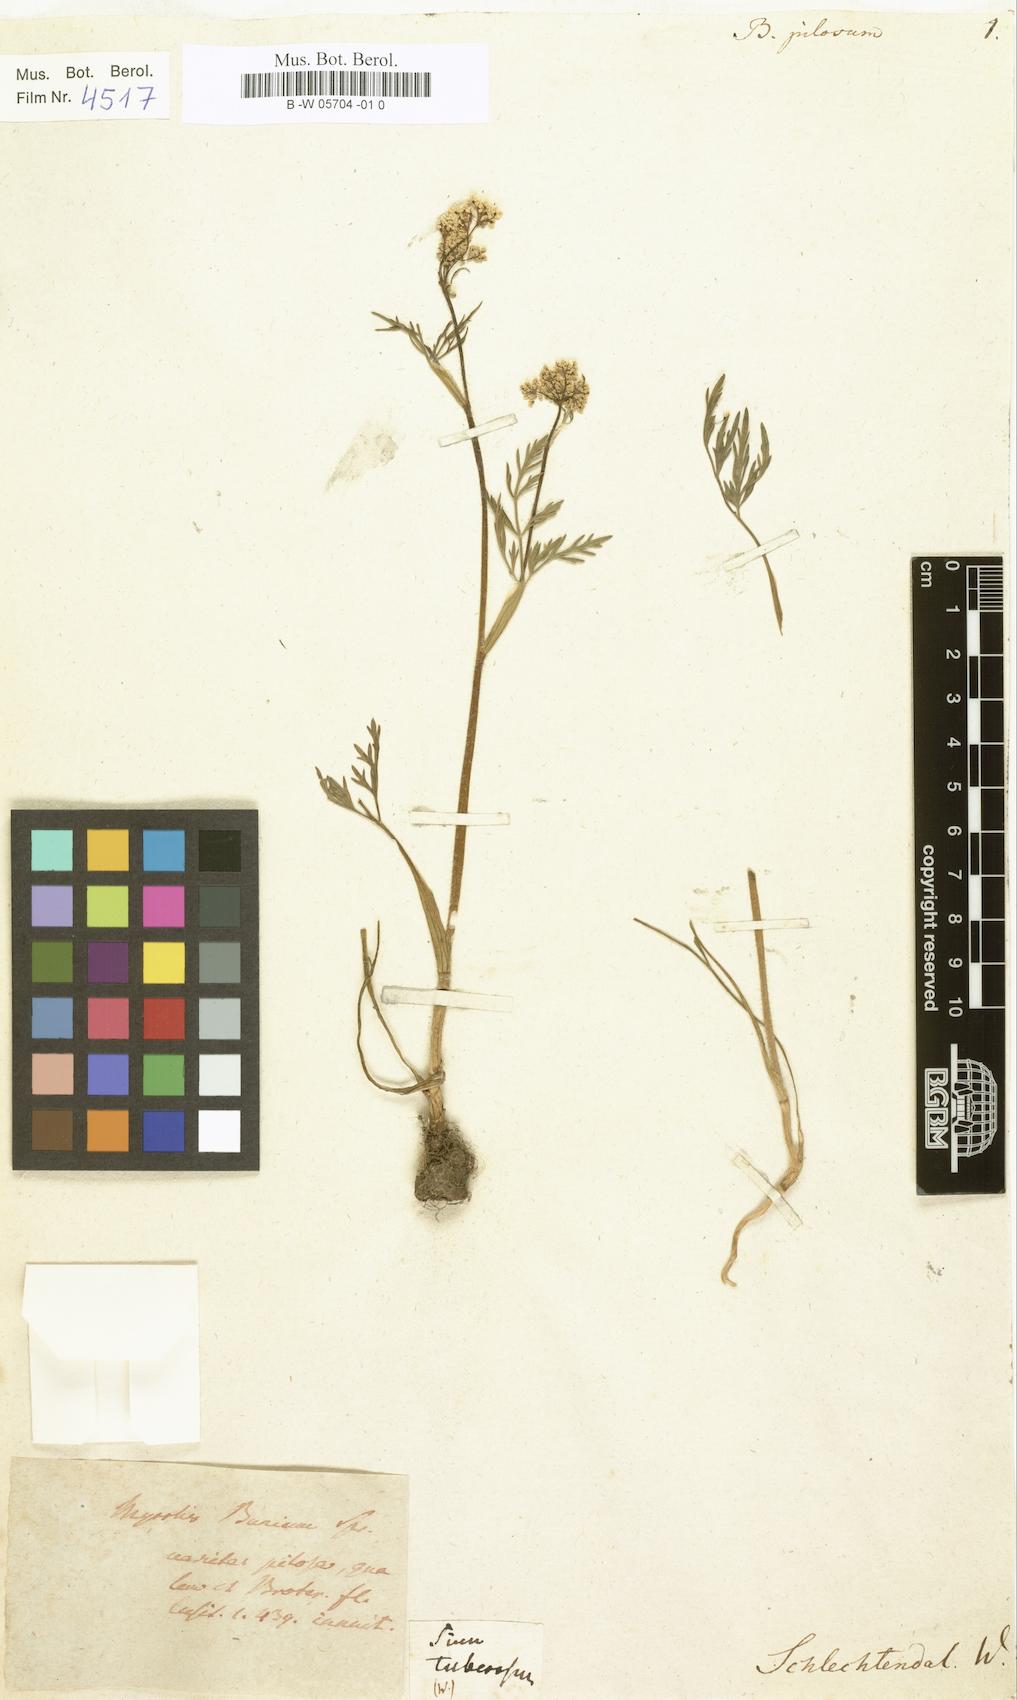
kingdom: Plantae
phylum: Tracheophyta
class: Magnoliopsida
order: Apiales
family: Apiaceae
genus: Conopodium
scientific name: Conopodium majus
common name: Pignut
